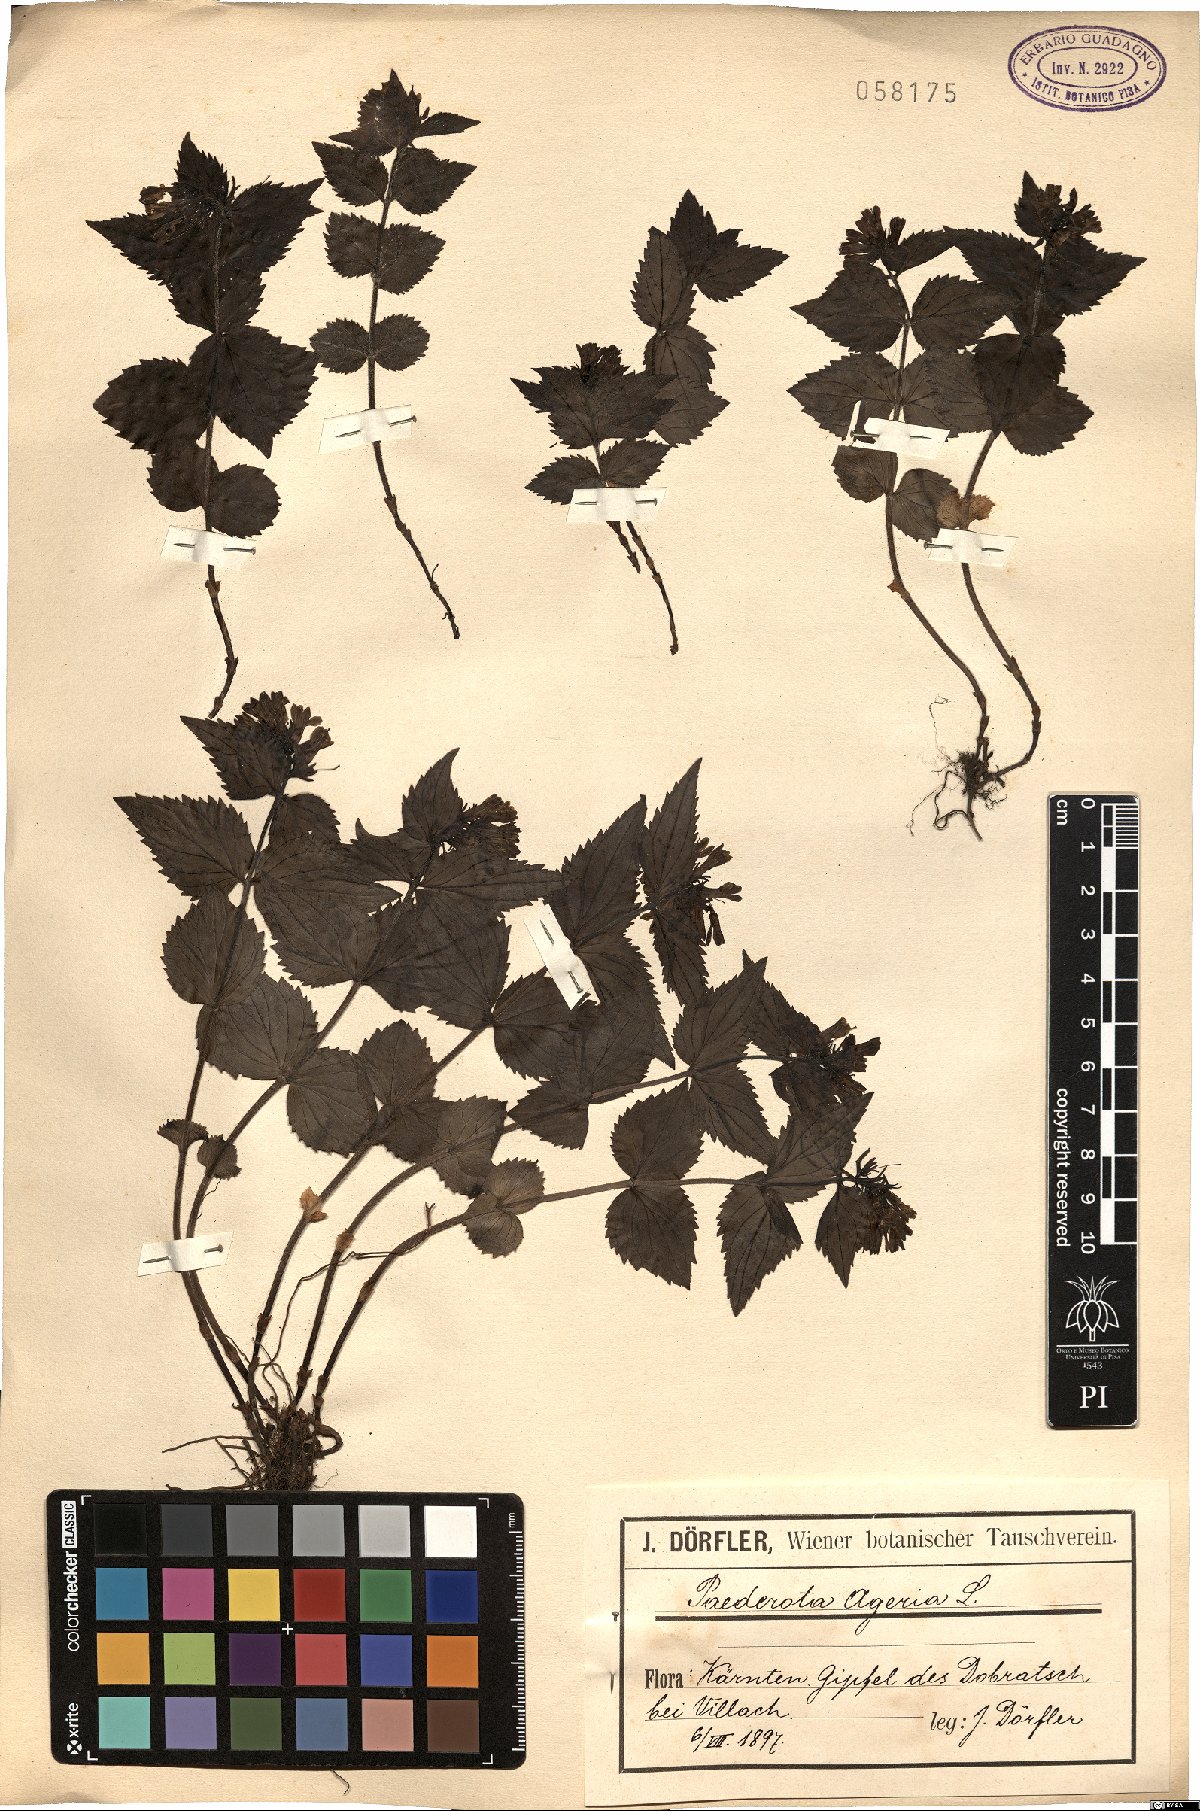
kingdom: Plantae
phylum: Tracheophyta
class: Magnoliopsida
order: Lamiales
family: Plantaginaceae
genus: Paederota
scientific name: Paederota lutea
